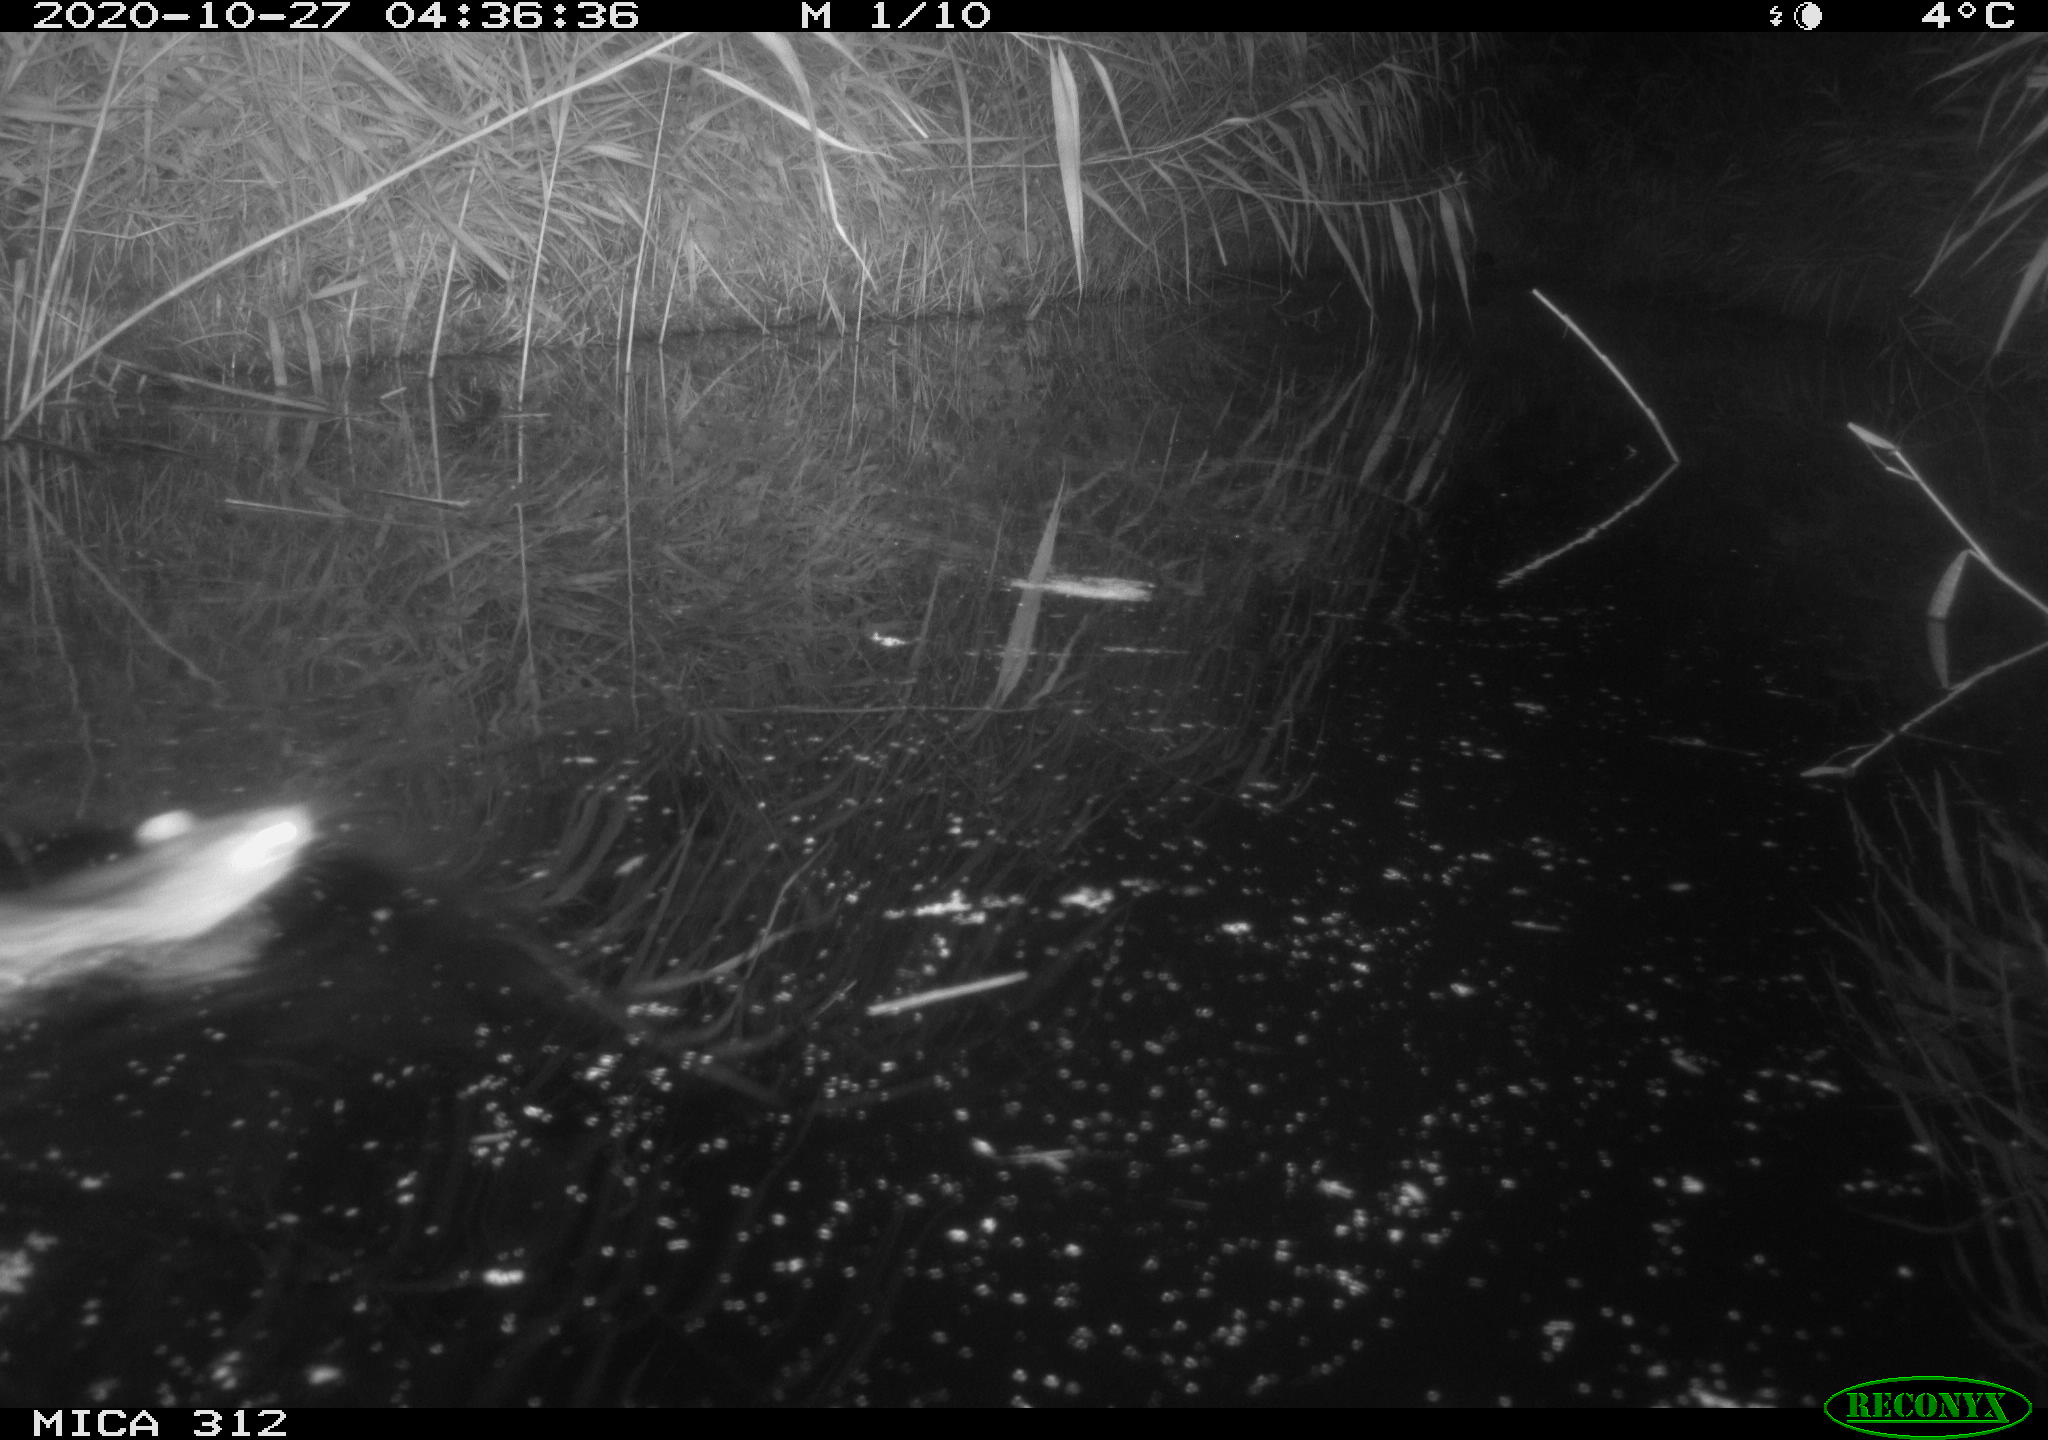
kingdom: Animalia
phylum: Chordata
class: Mammalia
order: Rodentia
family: Muridae
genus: Rattus
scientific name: Rattus norvegicus
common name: Brown rat
